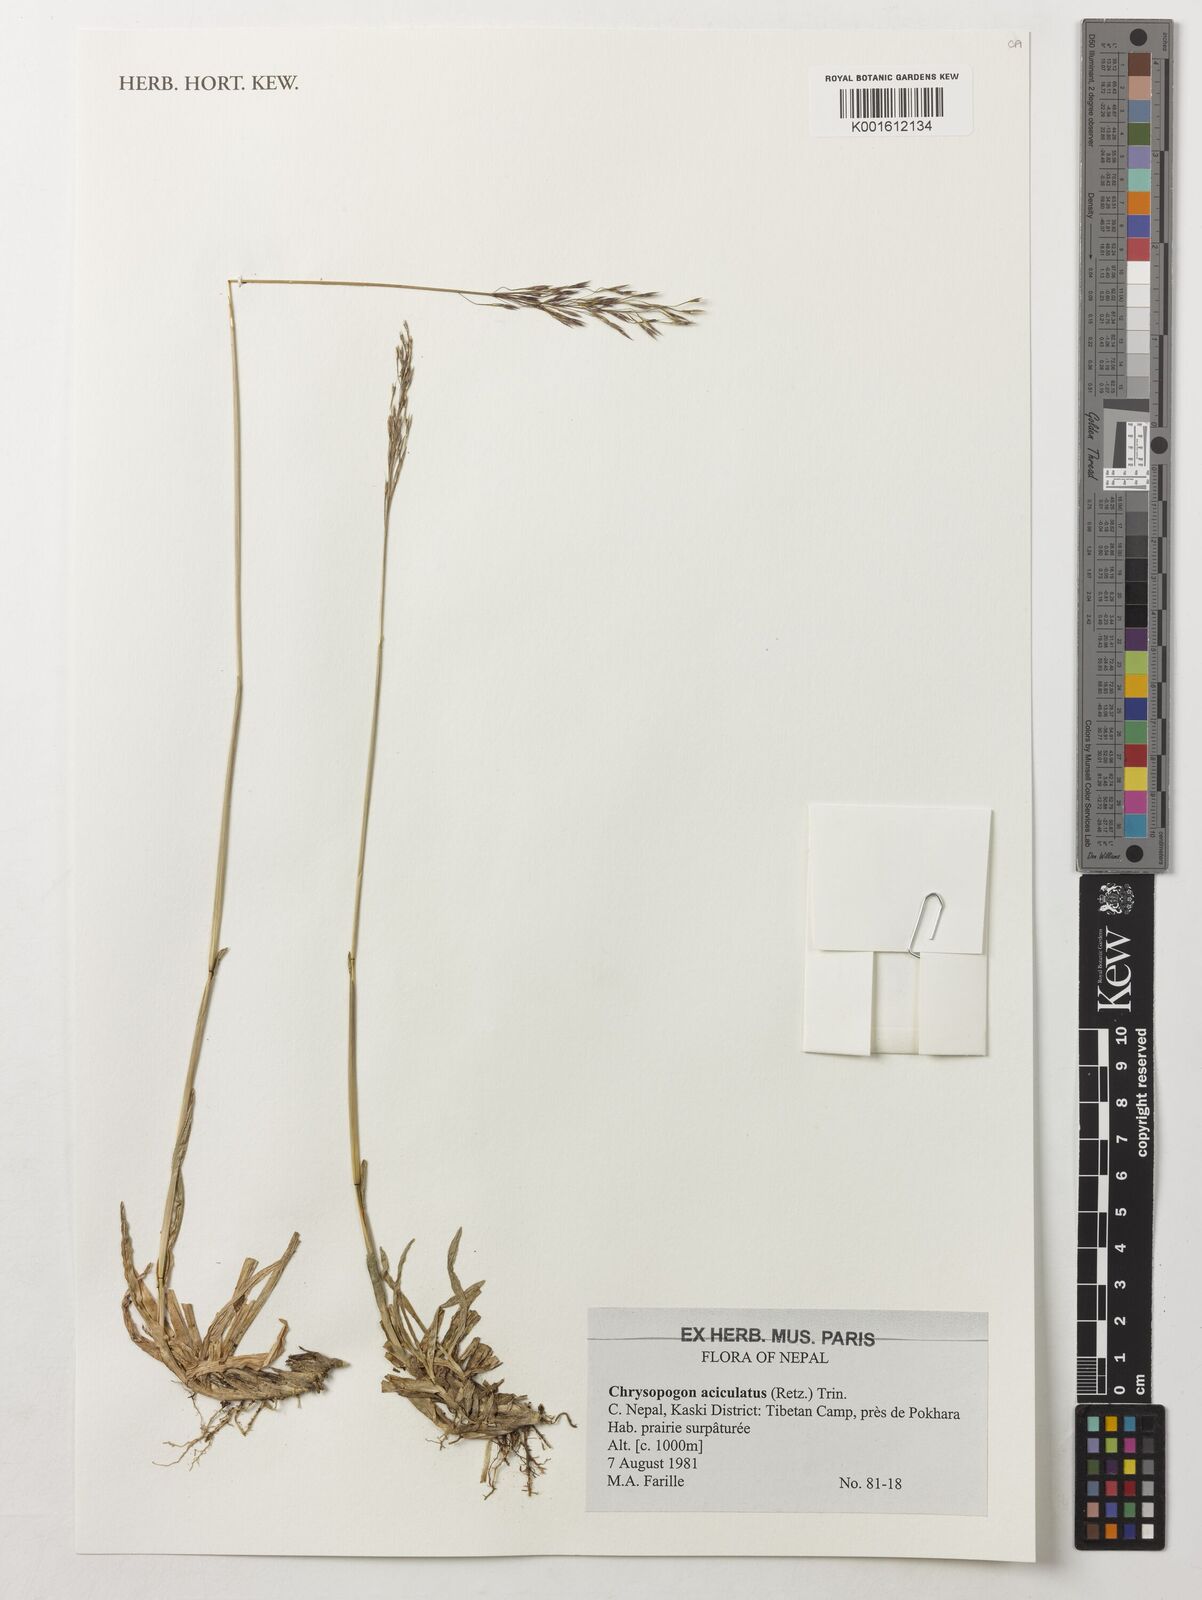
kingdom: Plantae
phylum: Tracheophyta
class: Liliopsida
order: Poales
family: Poaceae
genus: Chrysopogon
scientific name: Chrysopogon aciculatus
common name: Pilipiliula
